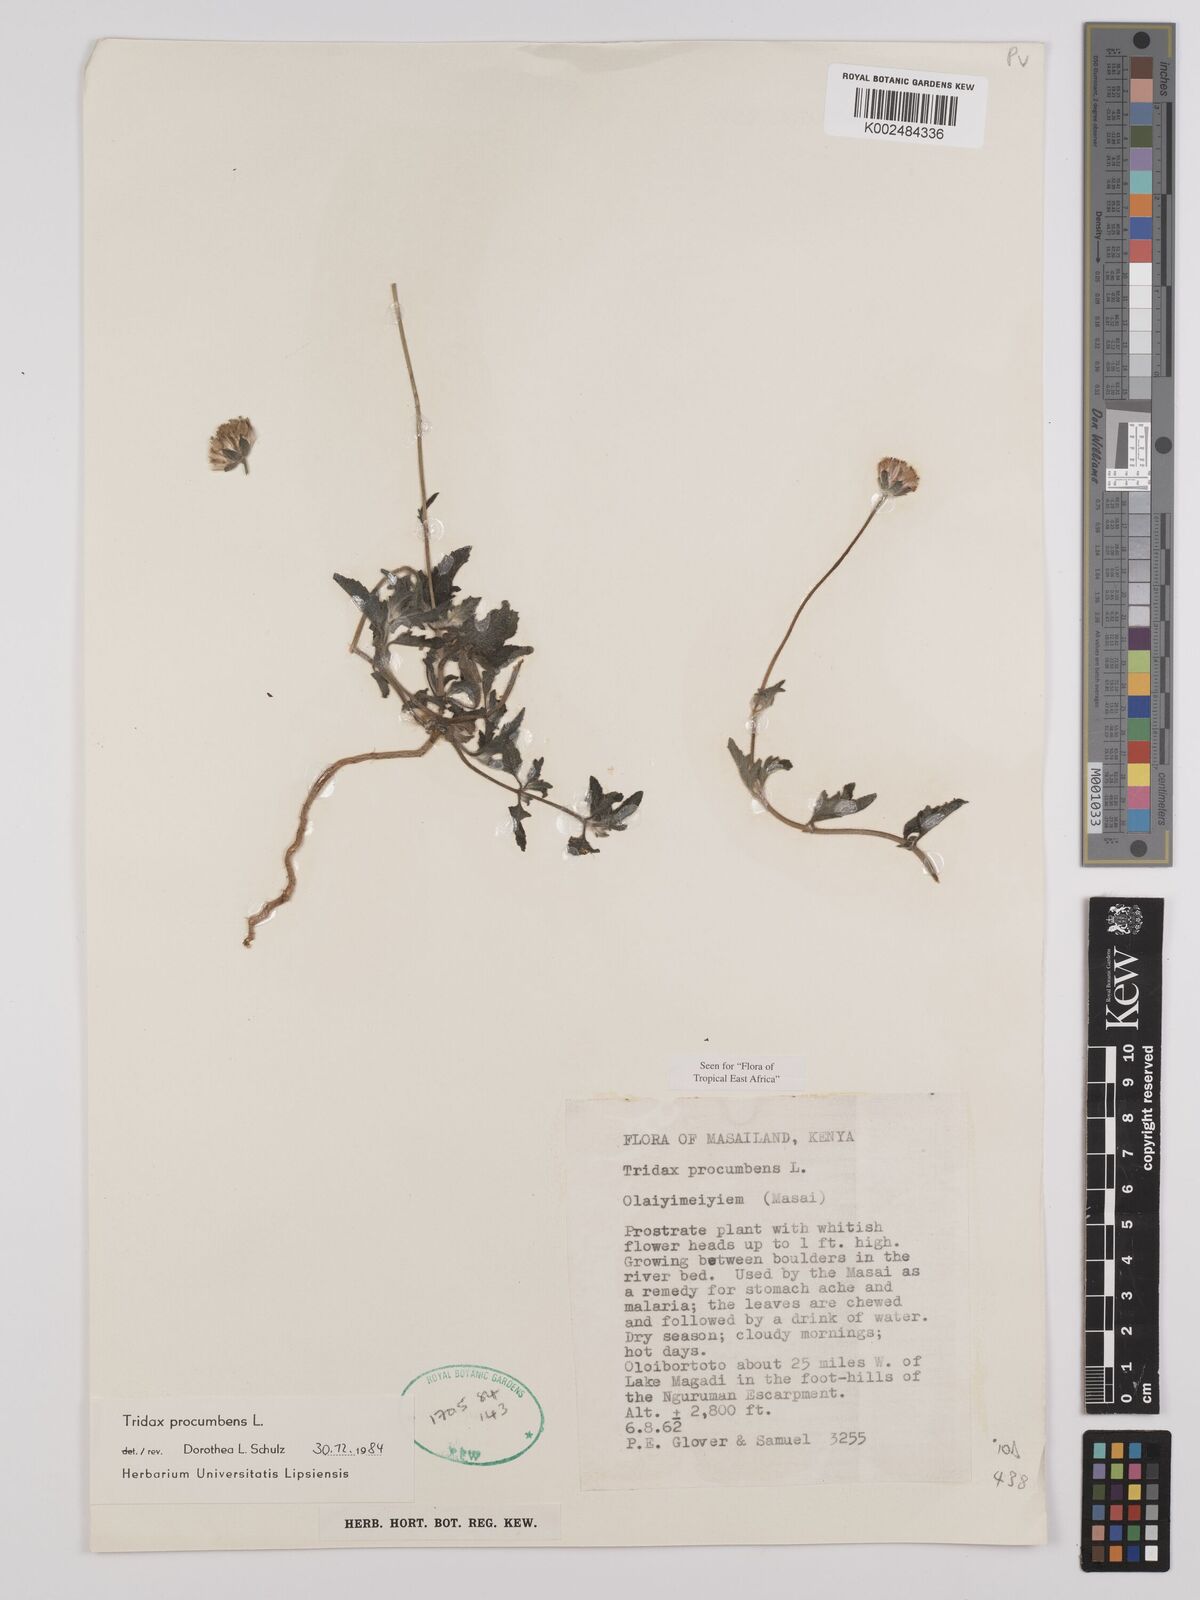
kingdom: Plantae
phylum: Tracheophyta
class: Magnoliopsida
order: Asterales
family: Asteraceae
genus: Tridax
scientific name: Tridax procumbens
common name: Coatbuttons
